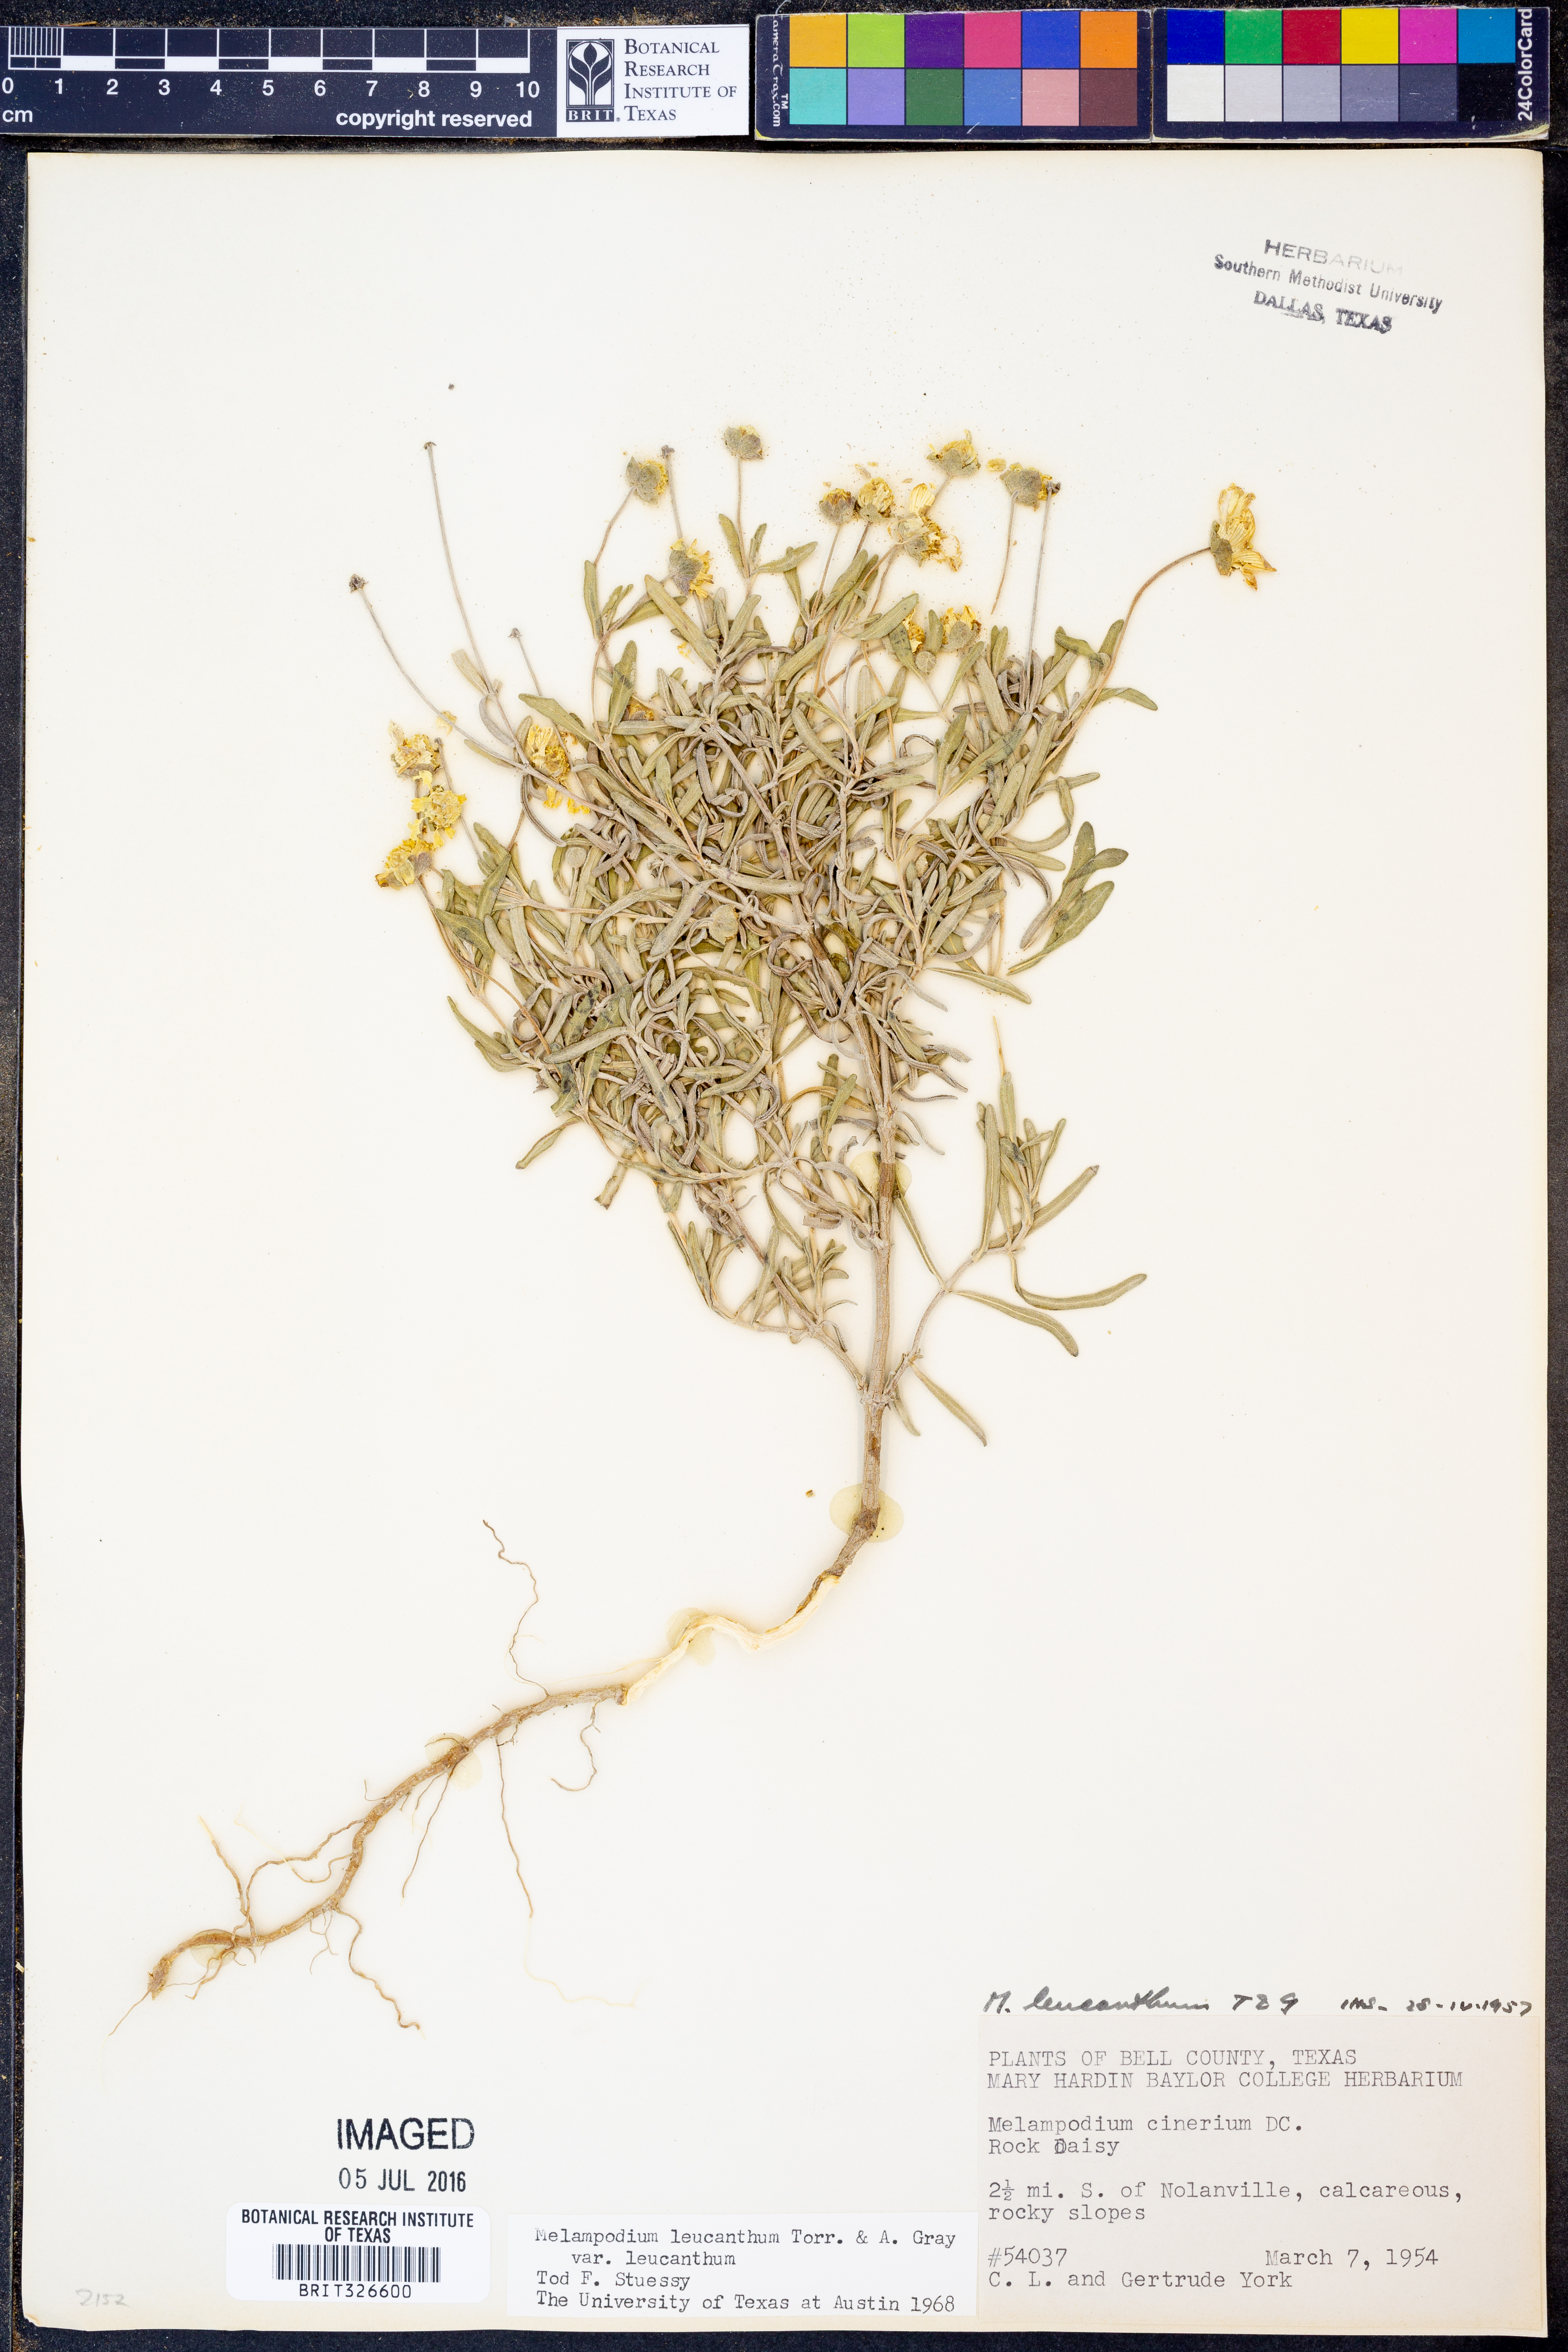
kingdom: Plantae
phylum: Tracheophyta
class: Magnoliopsida
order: Asterales
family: Asteraceae
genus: Melampodium
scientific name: Melampodium leucanthum
